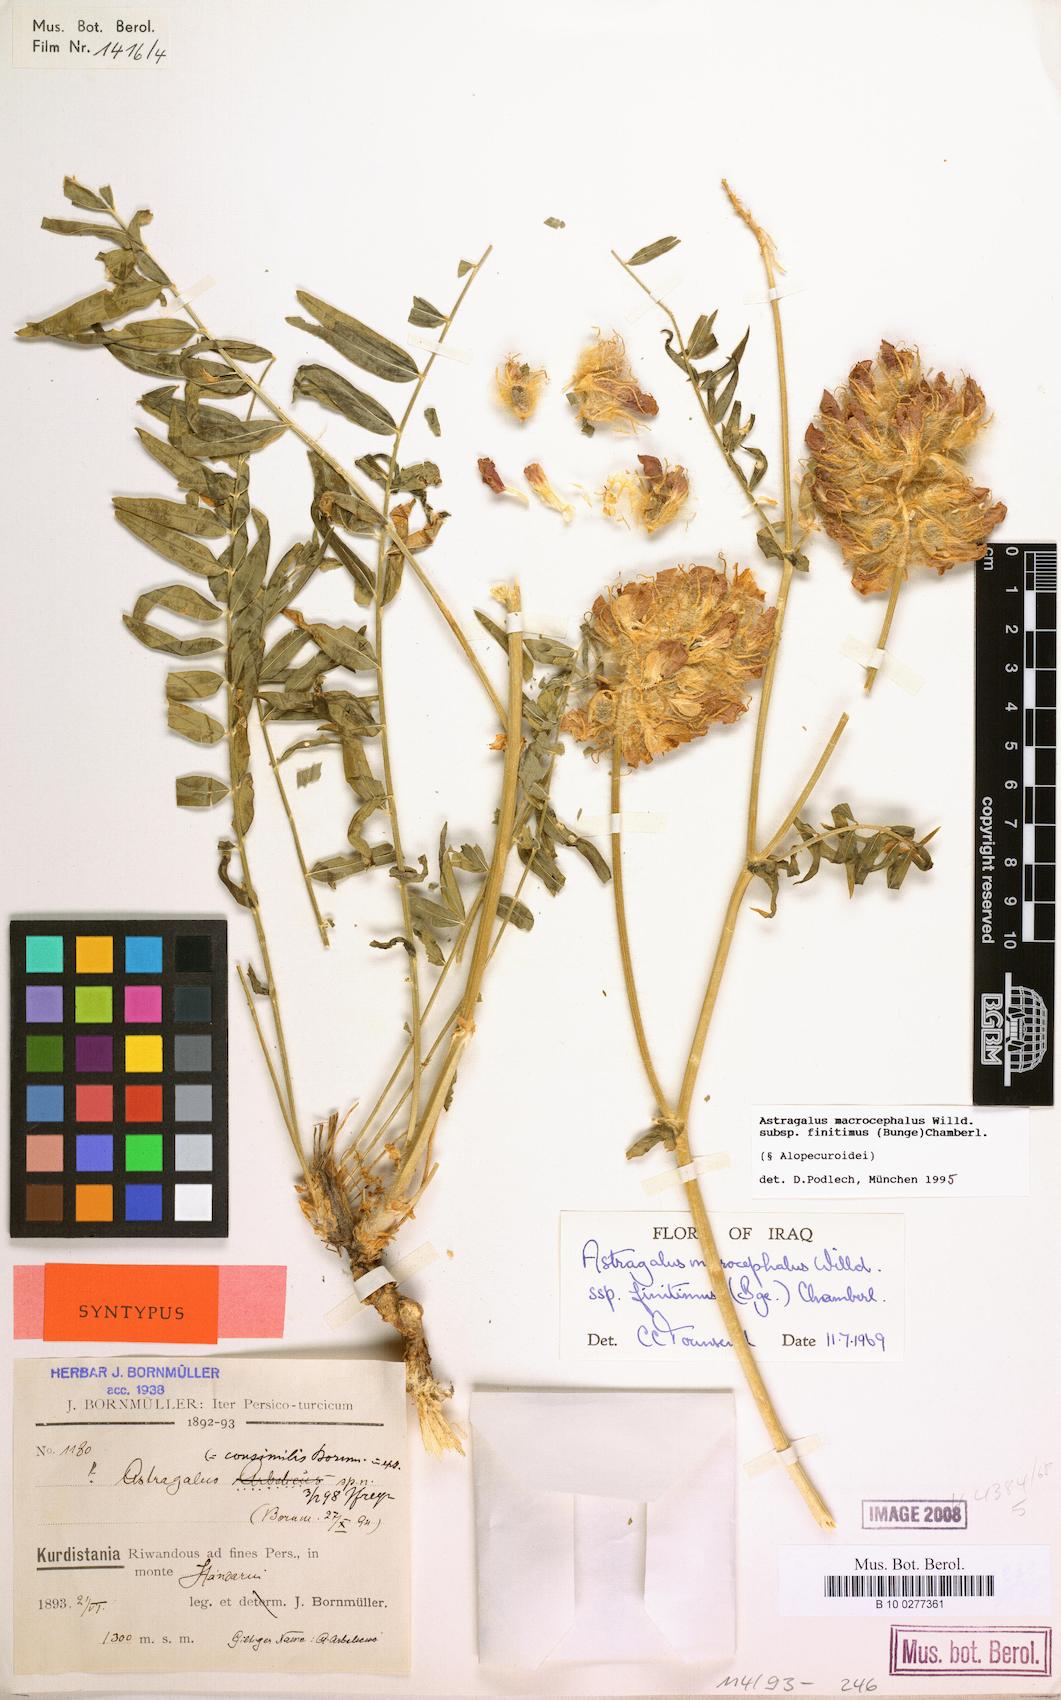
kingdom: Plantae
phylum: Tracheophyta
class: Magnoliopsida
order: Fabales
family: Fabaceae
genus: Astragalus
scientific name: Astragalus macrocephalus
